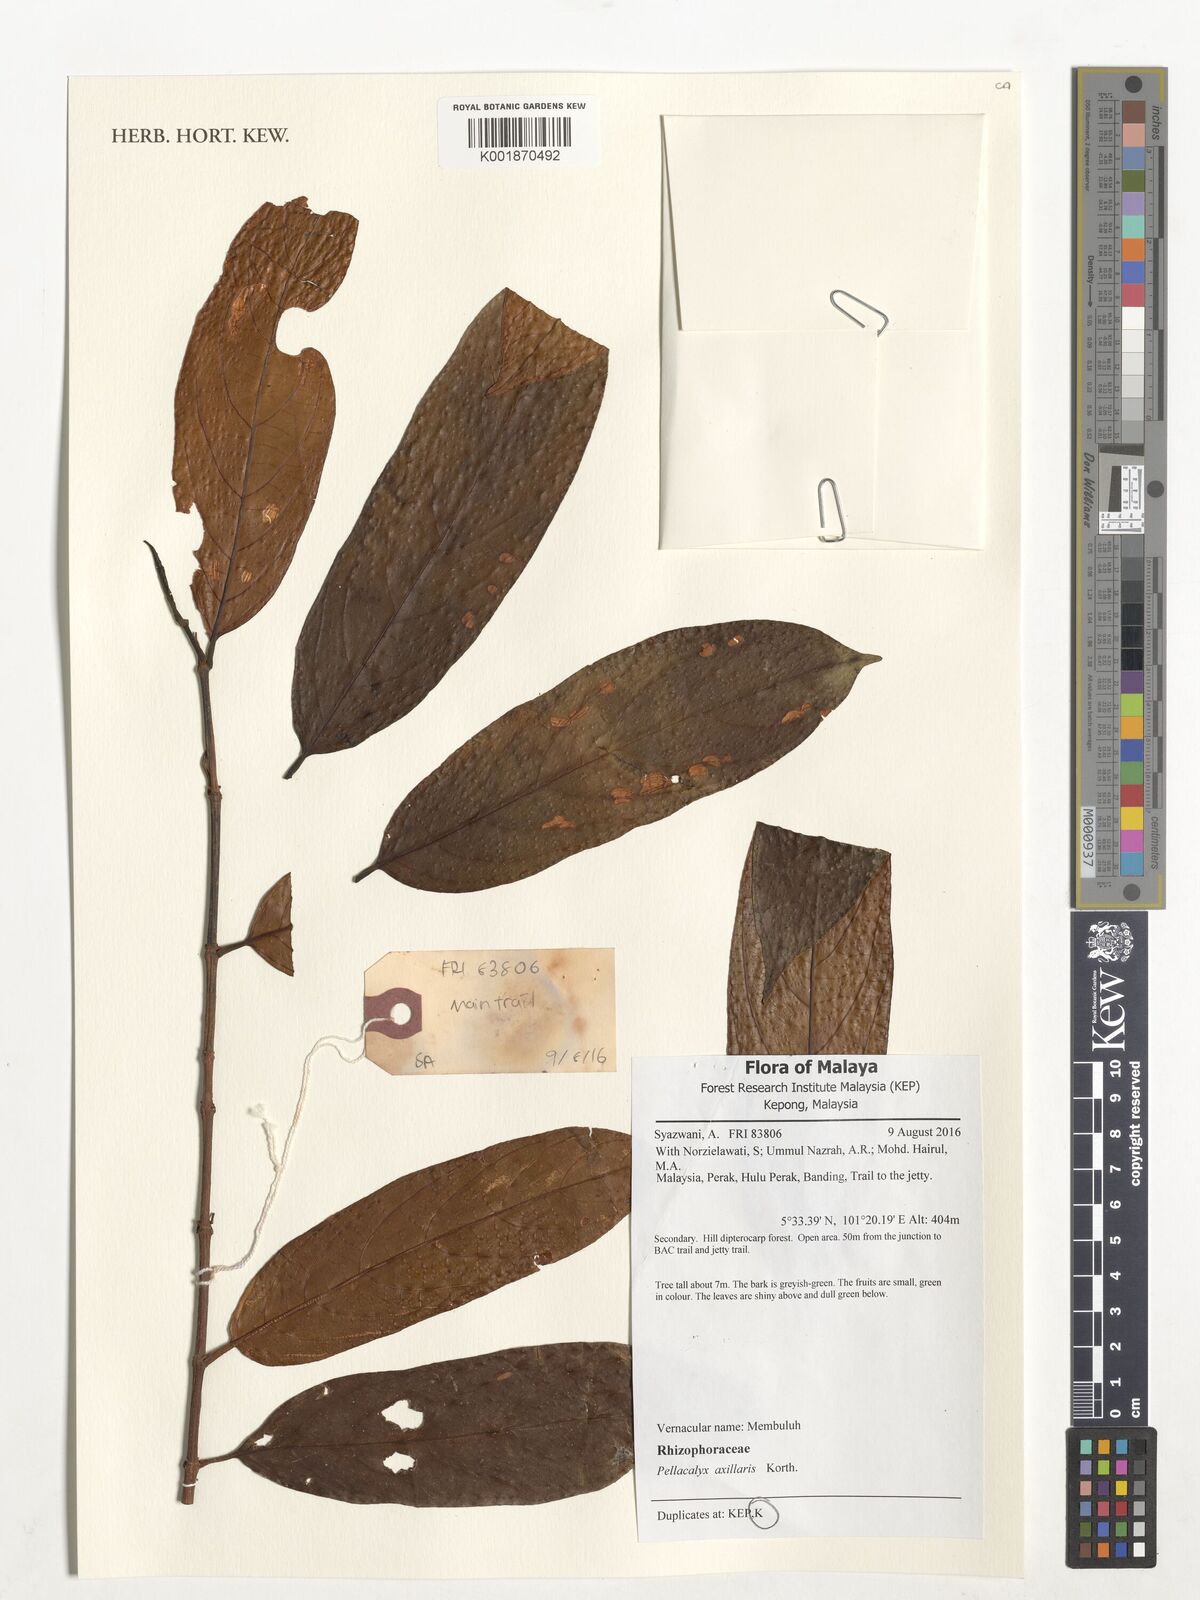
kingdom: Plantae
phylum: Tracheophyta
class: Magnoliopsida
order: Malpighiales
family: Rhizophoraceae
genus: Pellacalyx
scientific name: Pellacalyx axillaris
